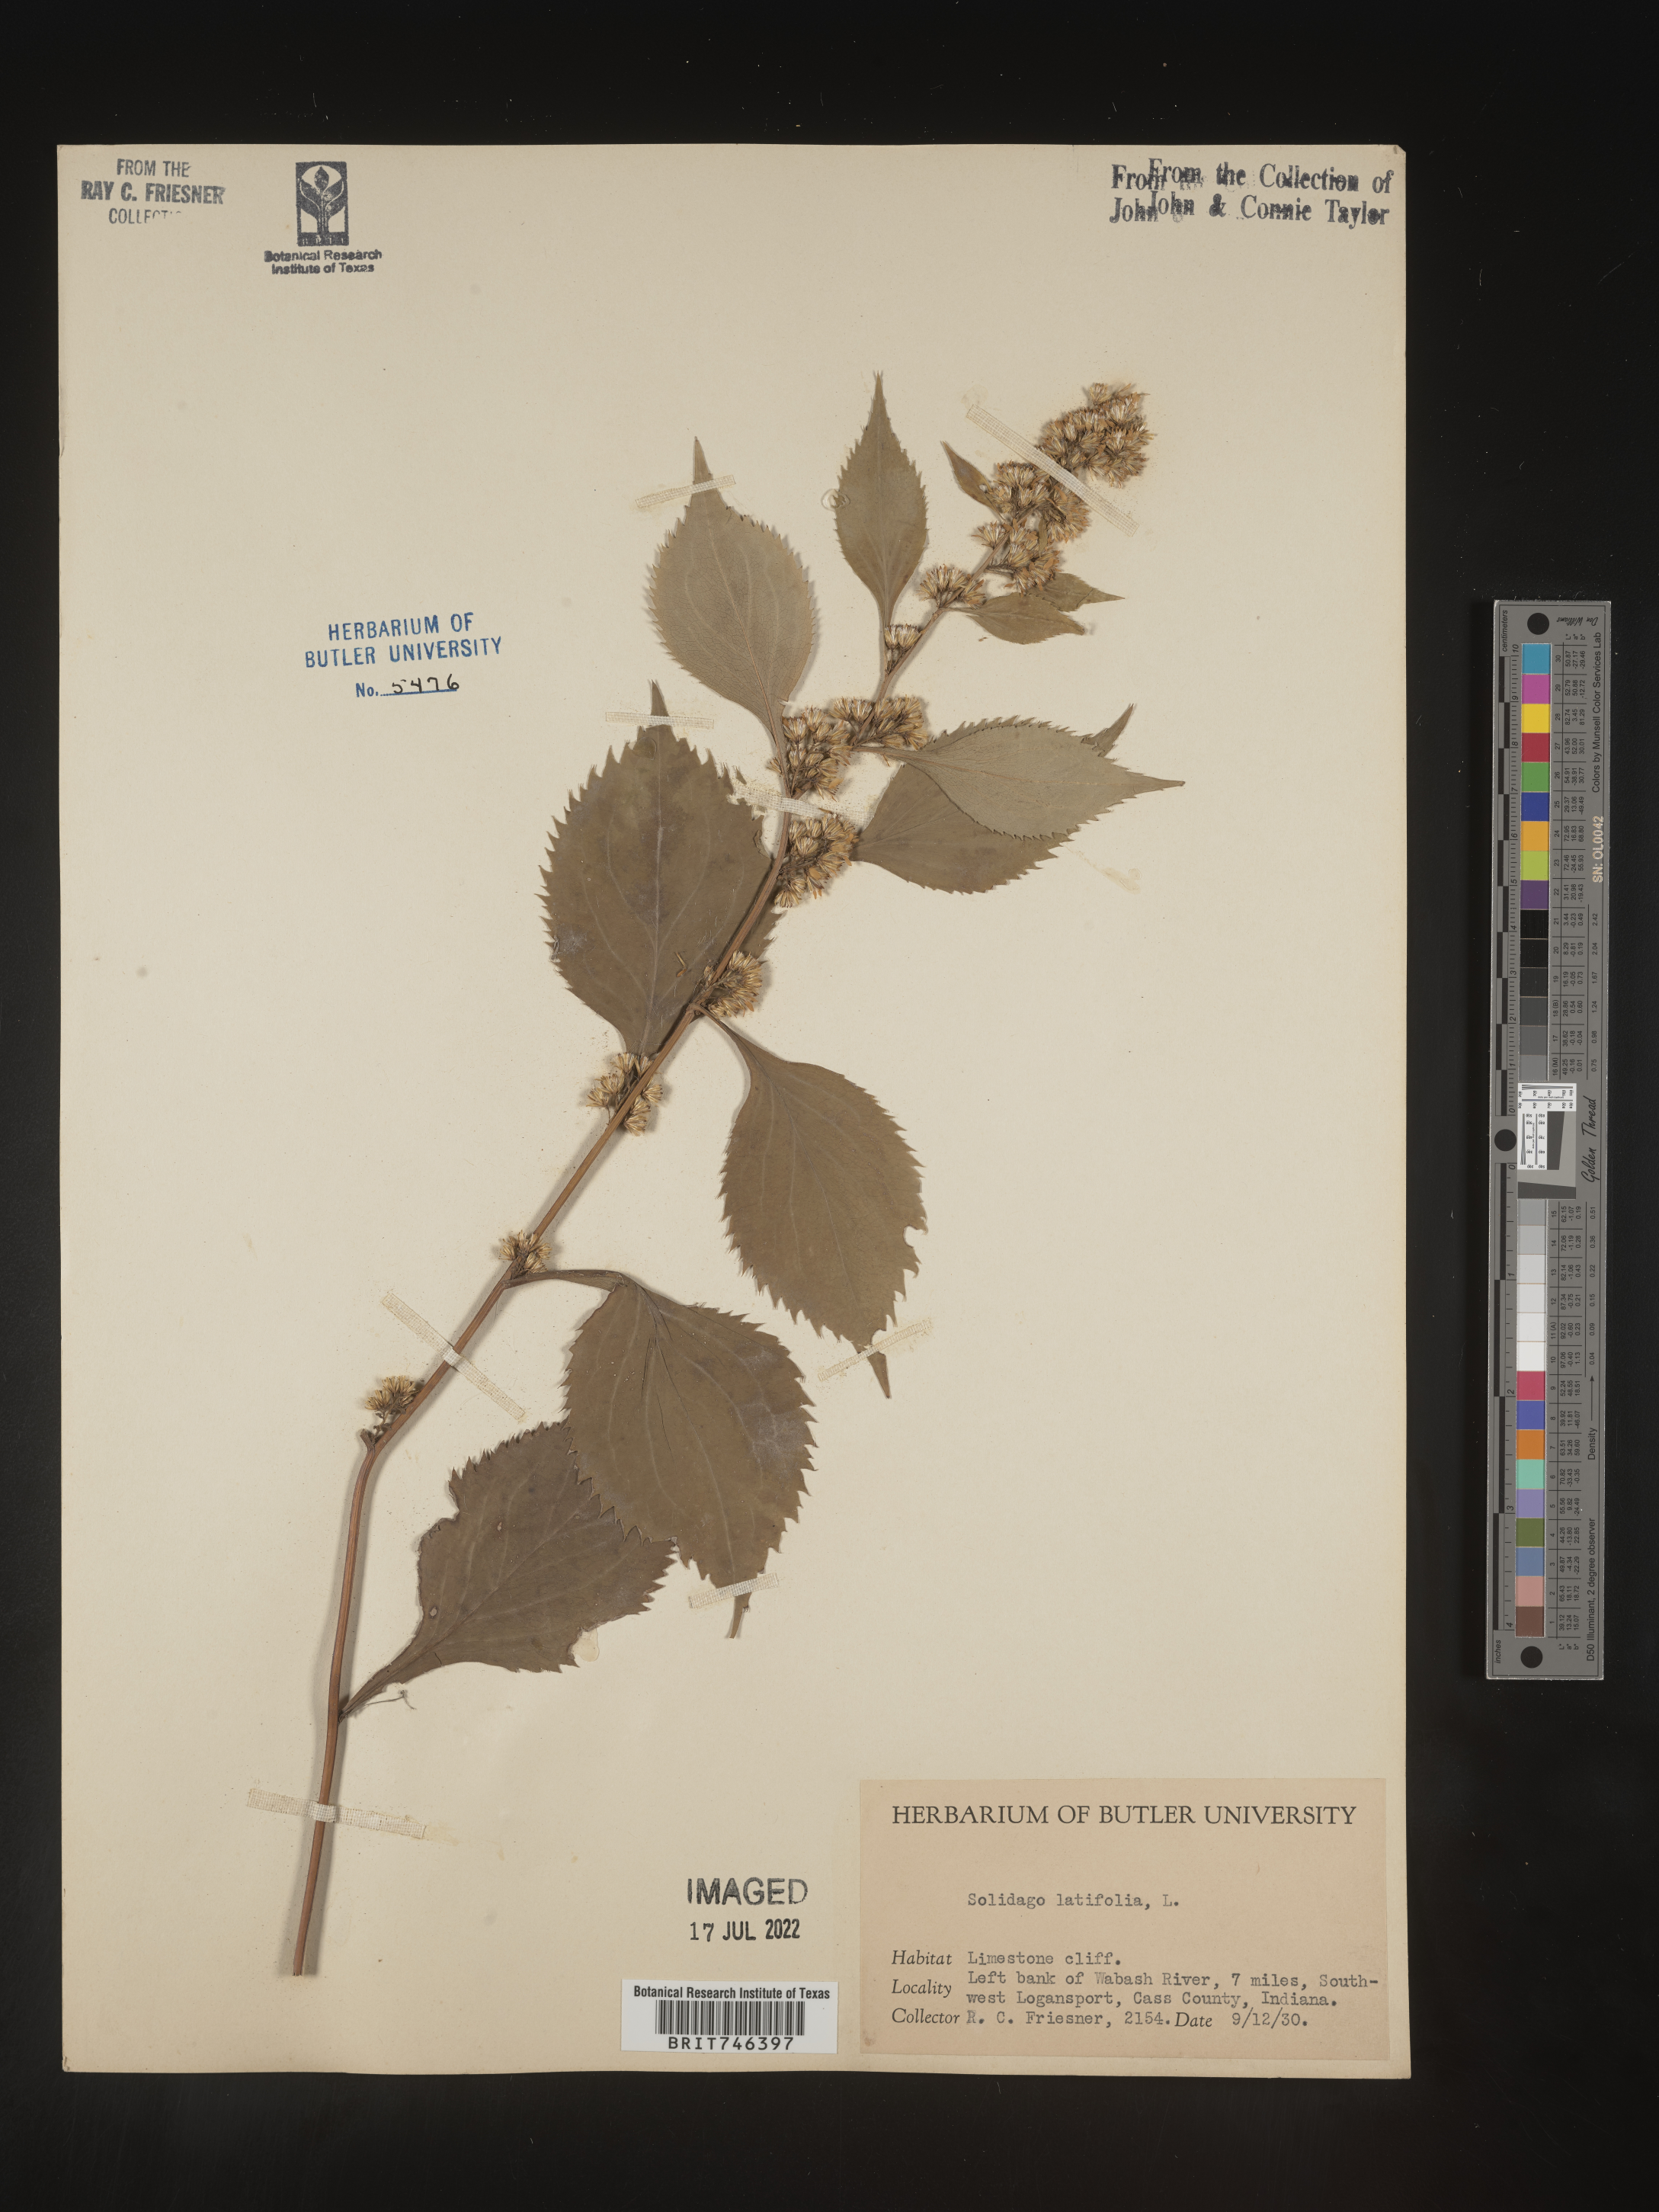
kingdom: Plantae
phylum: Tracheophyta
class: Magnoliopsida
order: Asterales
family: Asteraceae
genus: Solidago
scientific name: Solidago flexicaulis
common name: Zig-zag goldenrod
